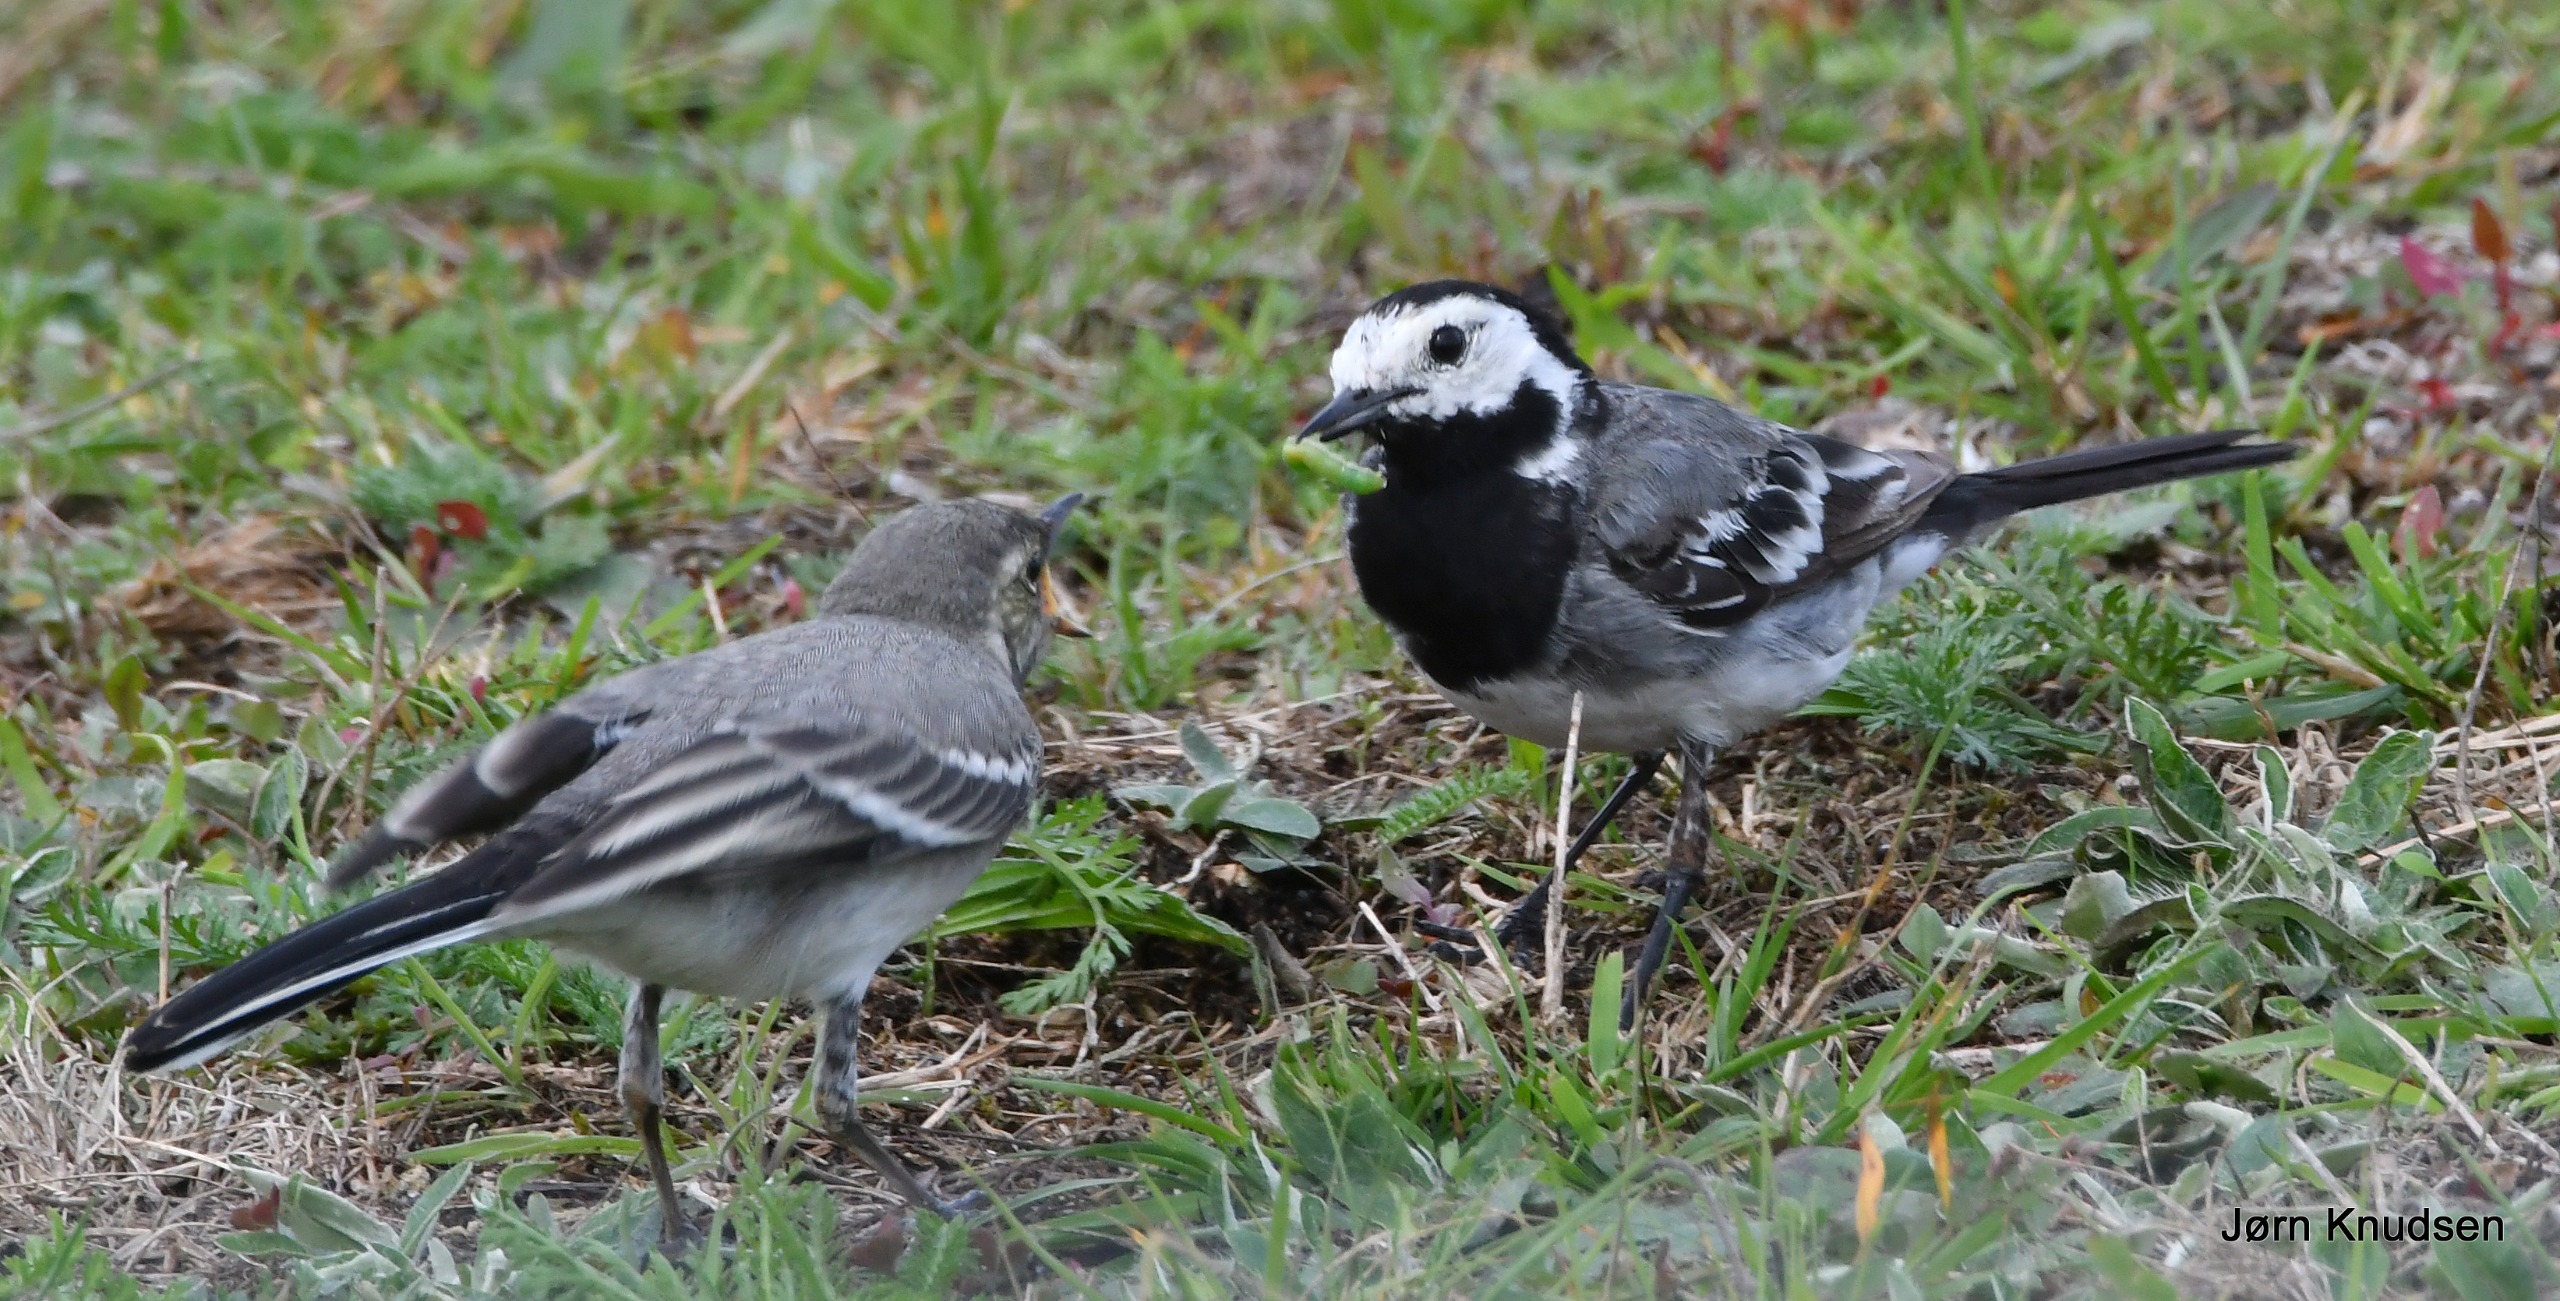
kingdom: Animalia
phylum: Chordata
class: Aves
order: Passeriformes
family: Motacillidae
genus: Motacilla
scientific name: Motacilla alba
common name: Hvid vipstjert
